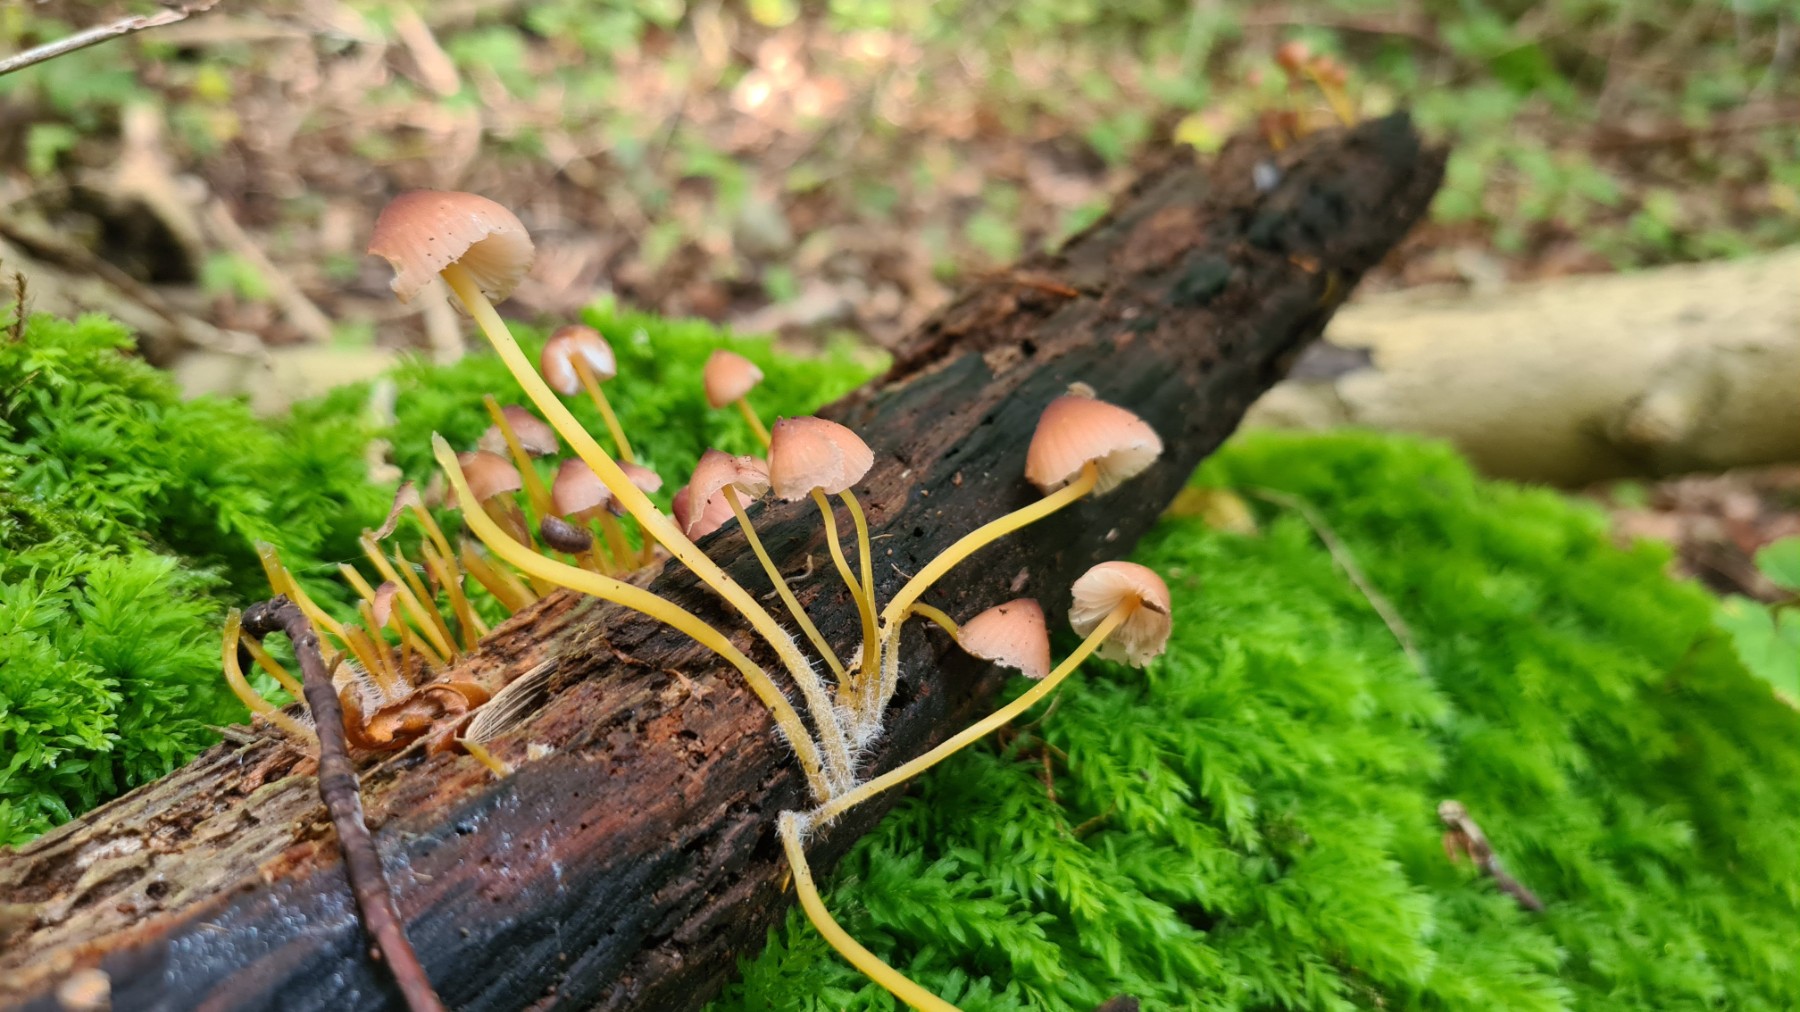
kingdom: Fungi
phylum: Basidiomycota
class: Agaricomycetes
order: Agaricales
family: Mycenaceae
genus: Mycena
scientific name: Mycena renati
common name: smuk huesvamp
